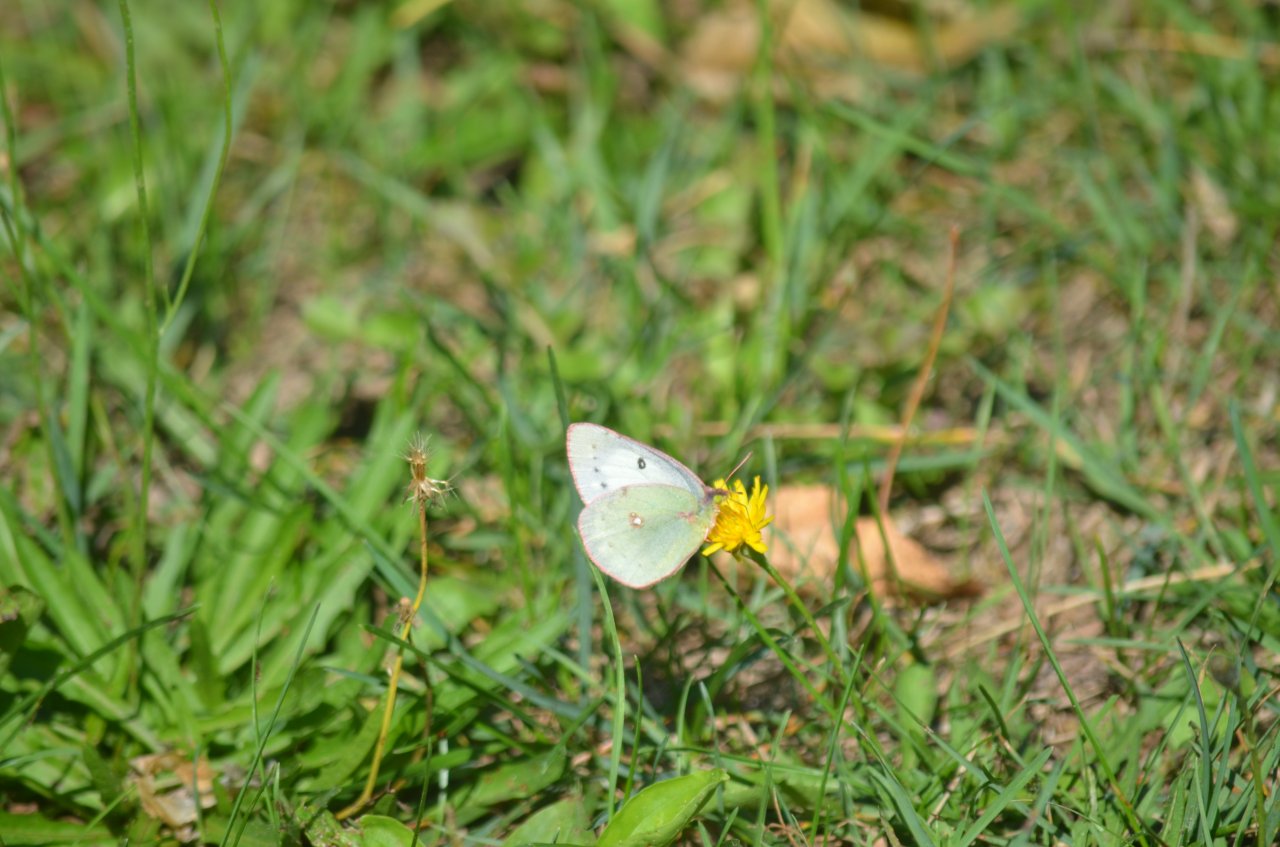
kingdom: Animalia
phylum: Arthropoda
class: Insecta
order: Lepidoptera
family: Pieridae
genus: Colias
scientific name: Colias philodice
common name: Clouded Sulphur
